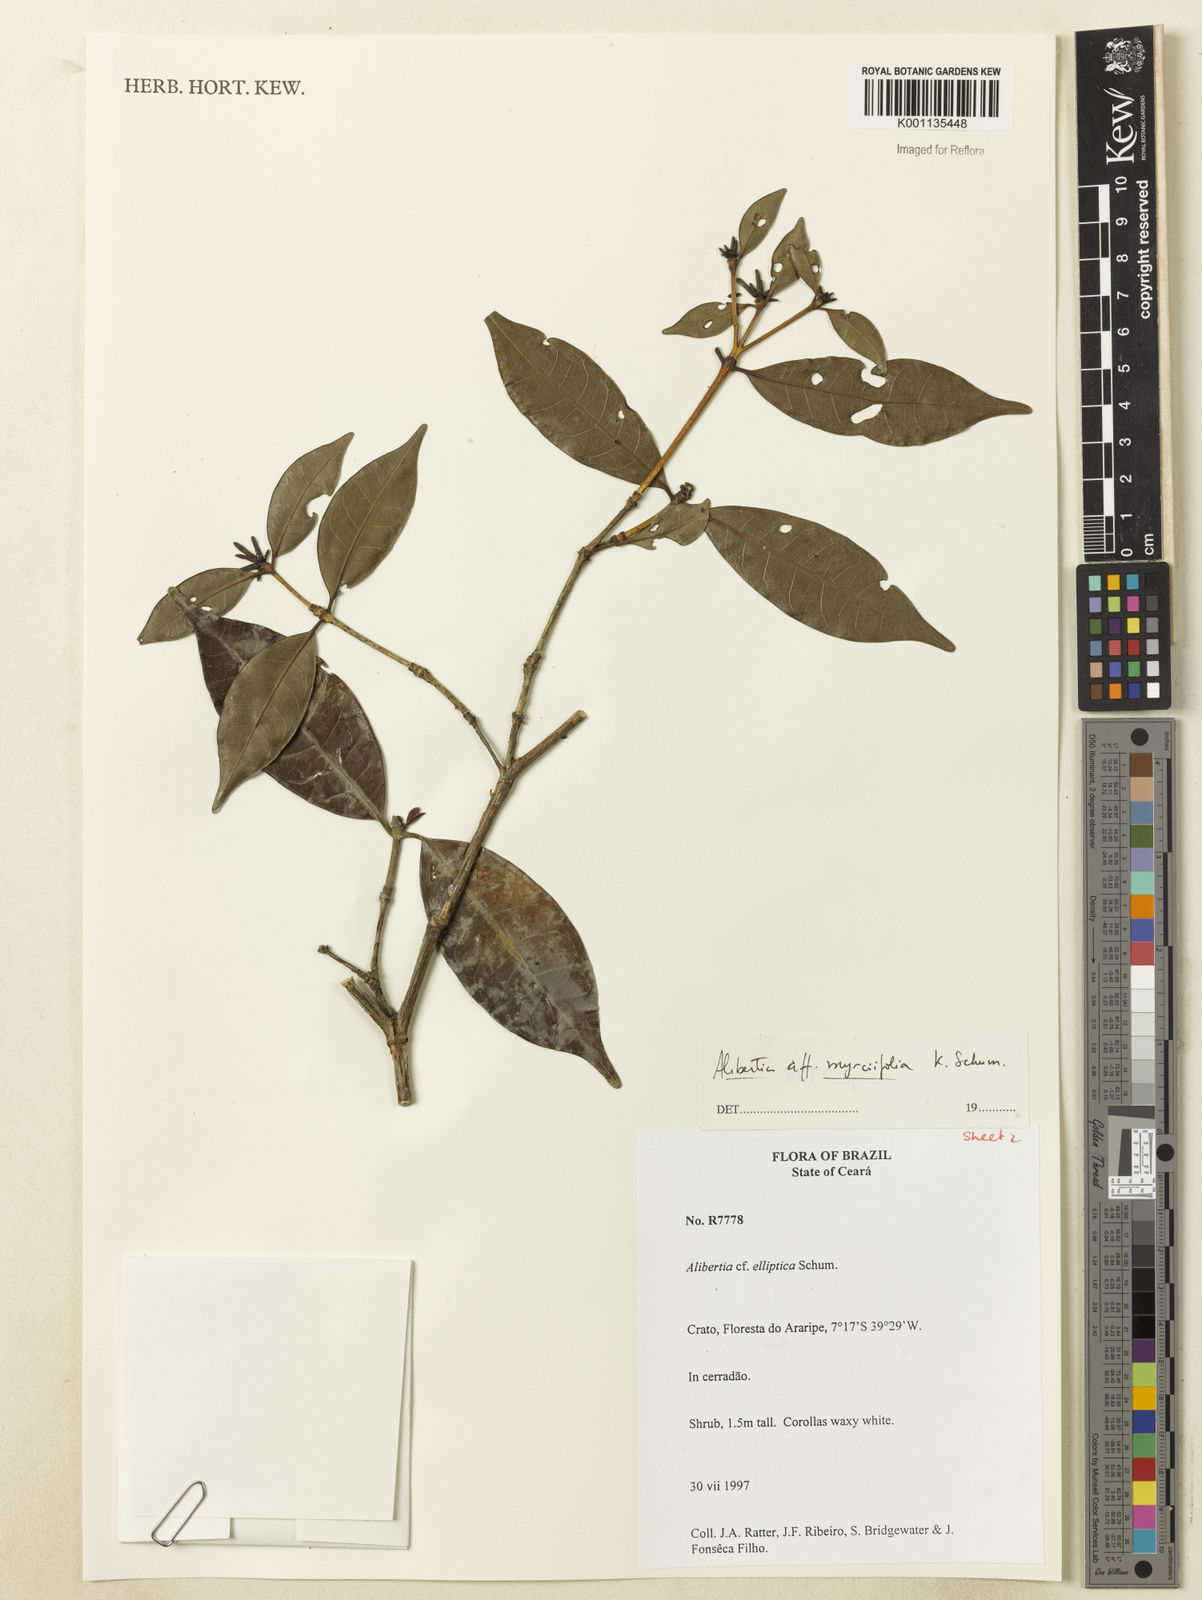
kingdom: Plantae
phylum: Tracheophyta
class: Magnoliopsida
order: Gentianales
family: Rubiaceae
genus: Cordiera
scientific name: Cordiera myrciifolia
